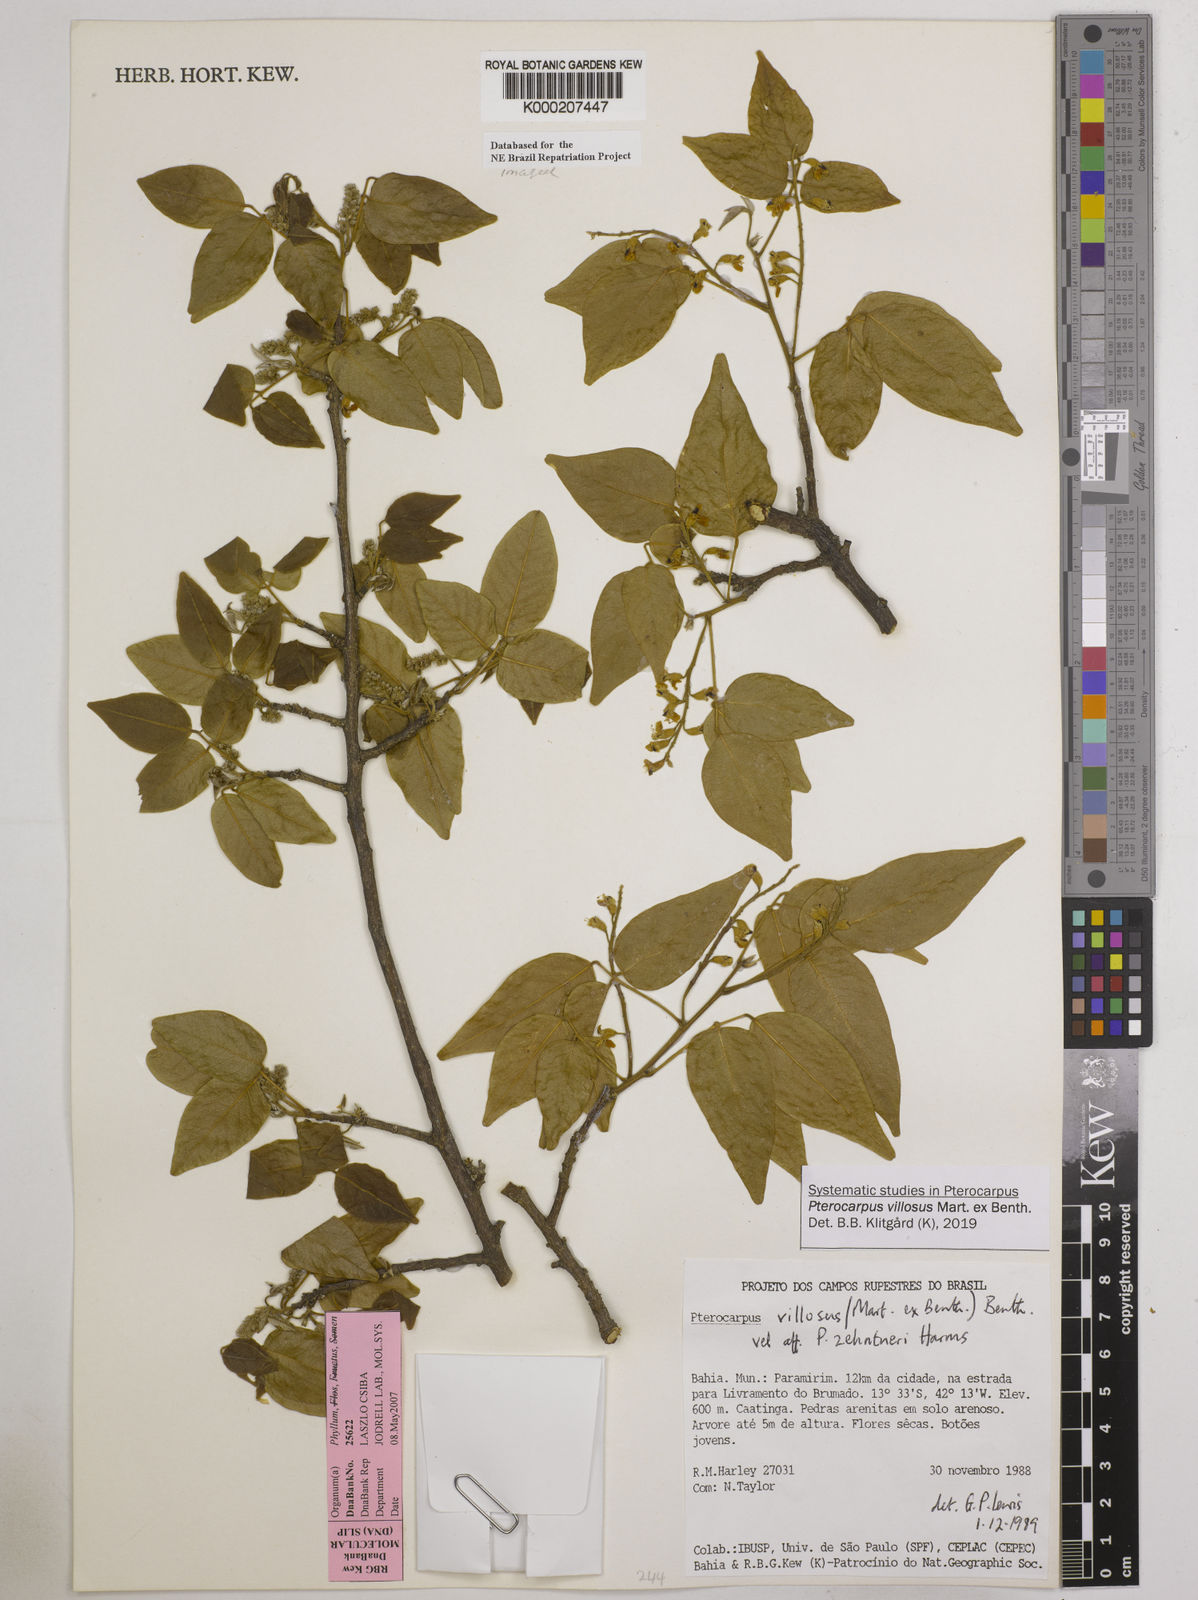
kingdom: Plantae
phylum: Tracheophyta
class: Magnoliopsida
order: Fabales
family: Fabaceae
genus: Pterocarpus
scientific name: Pterocarpus villosus
